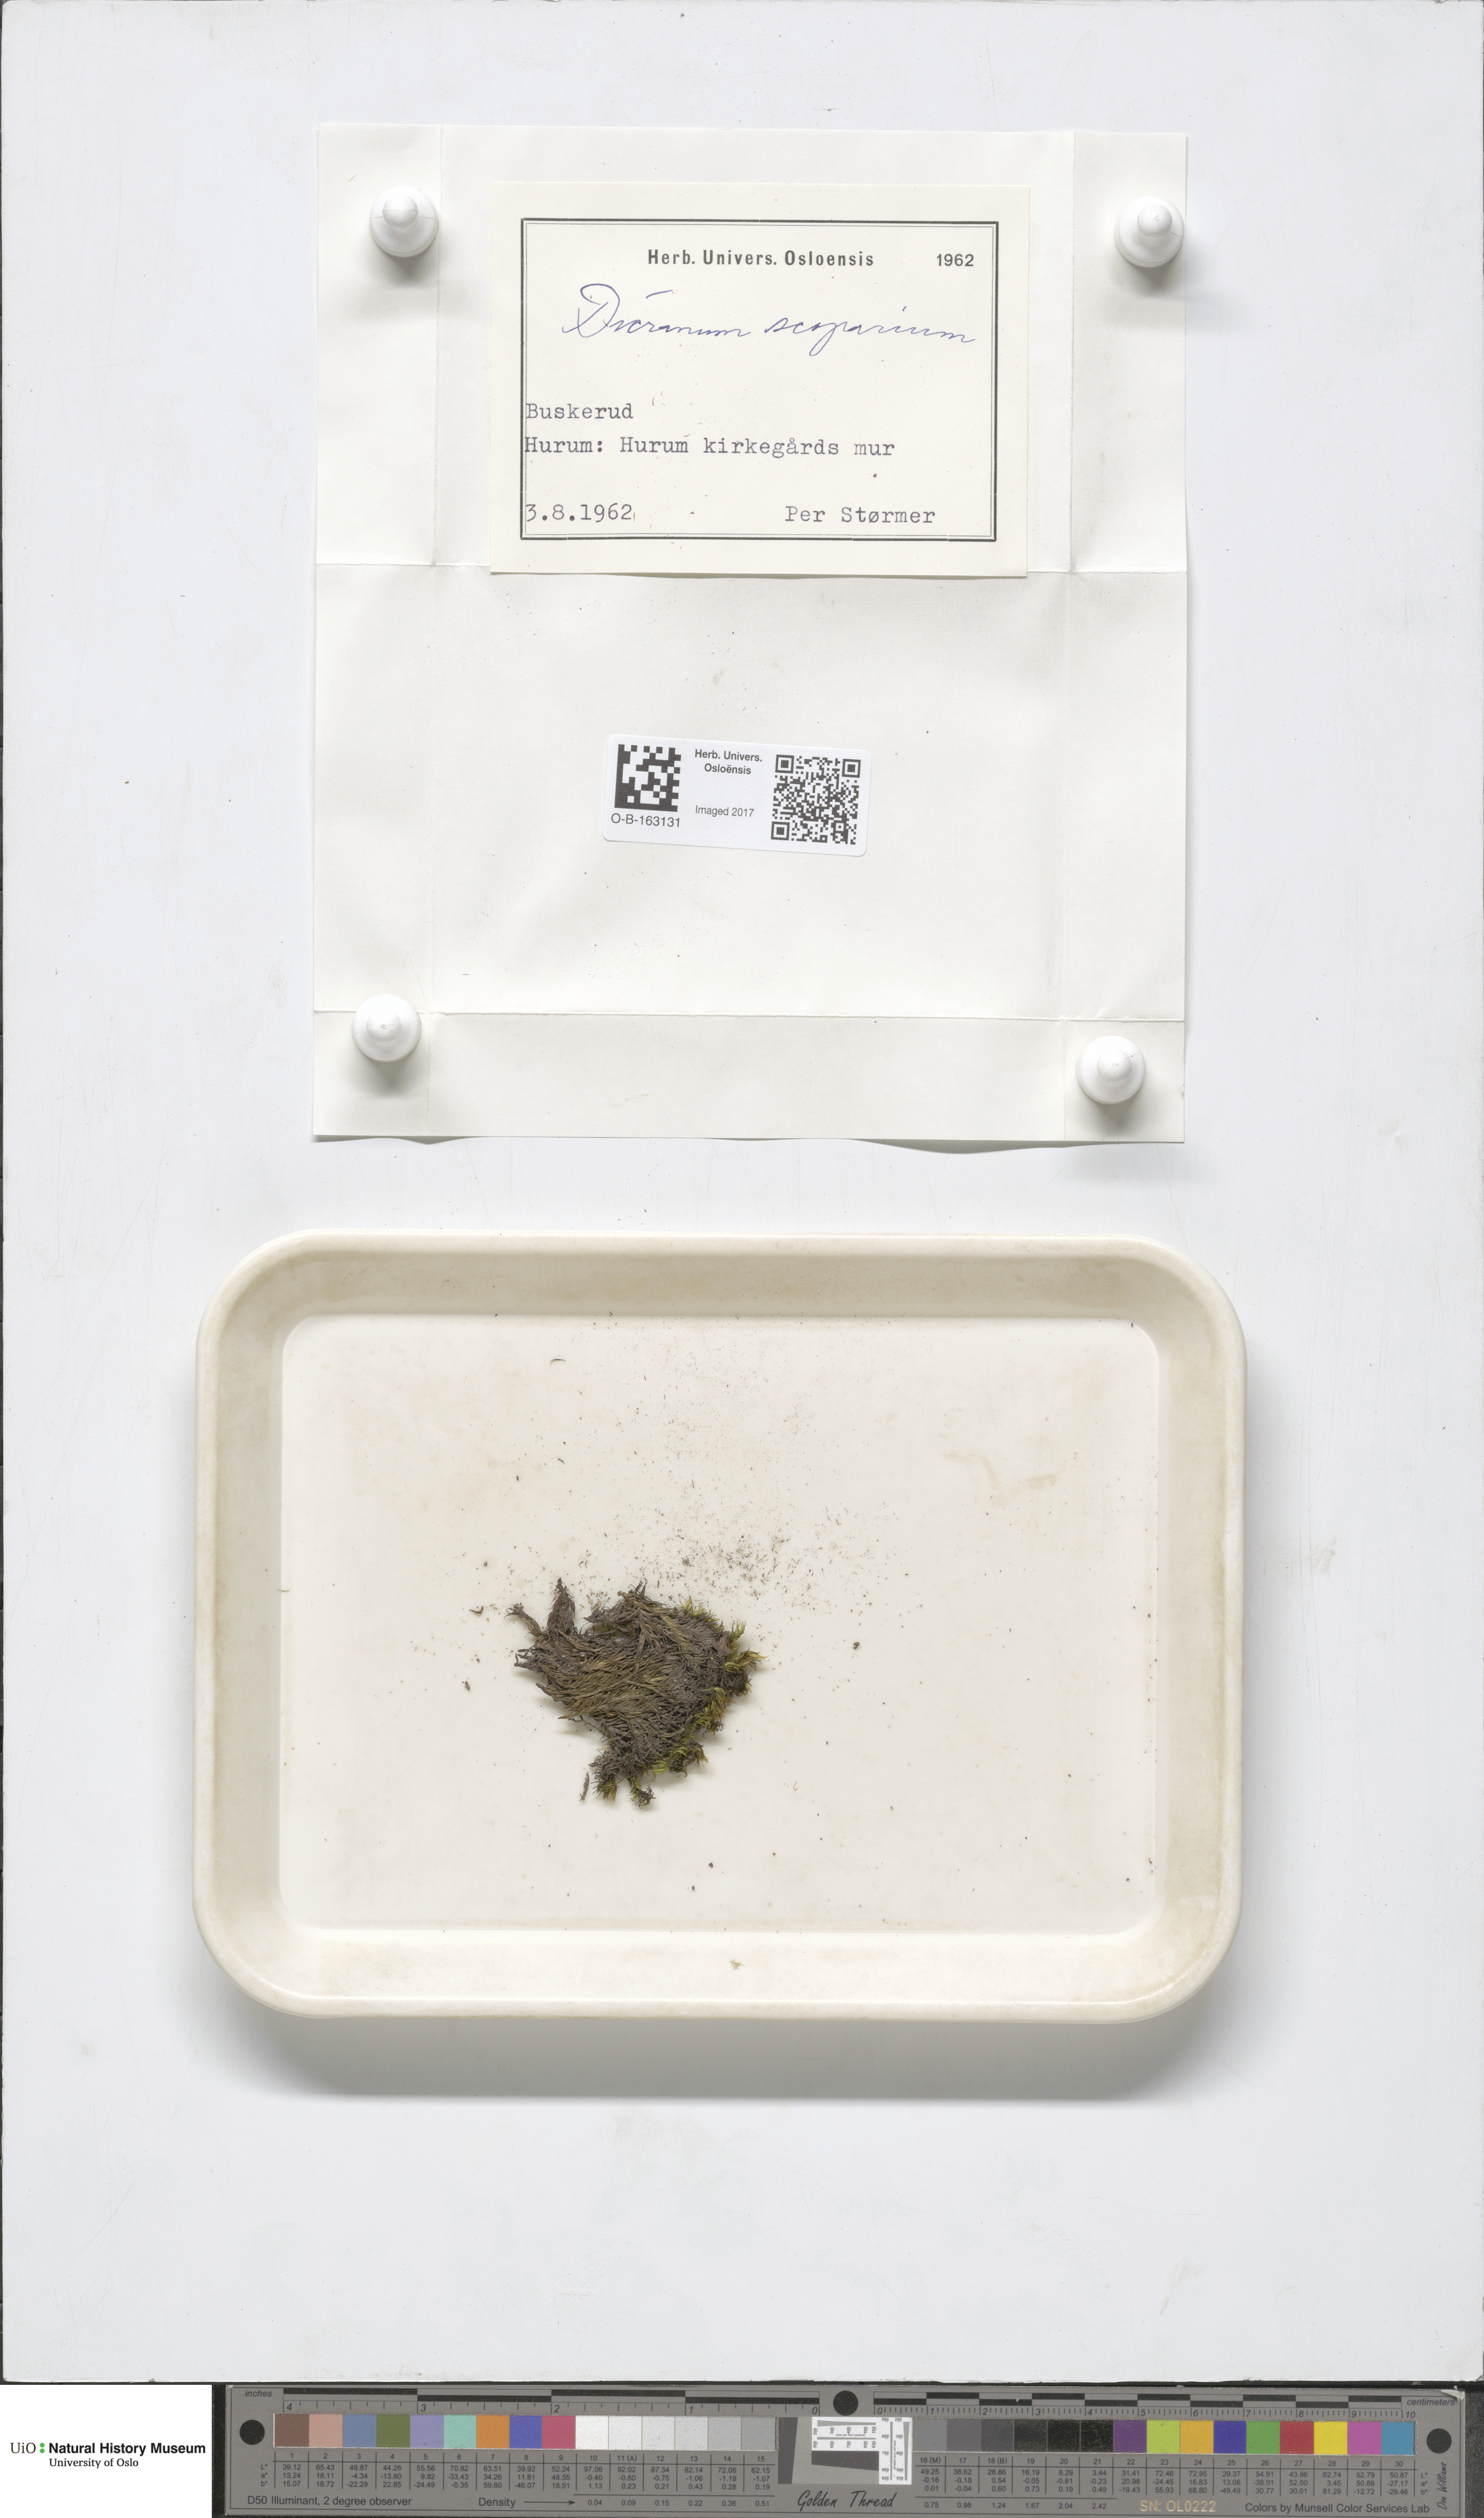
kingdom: Plantae
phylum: Bryophyta
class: Bryopsida
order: Dicranales
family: Dicranaceae
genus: Dicranum
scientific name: Dicranum scoparium
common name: Broom fork-moss
